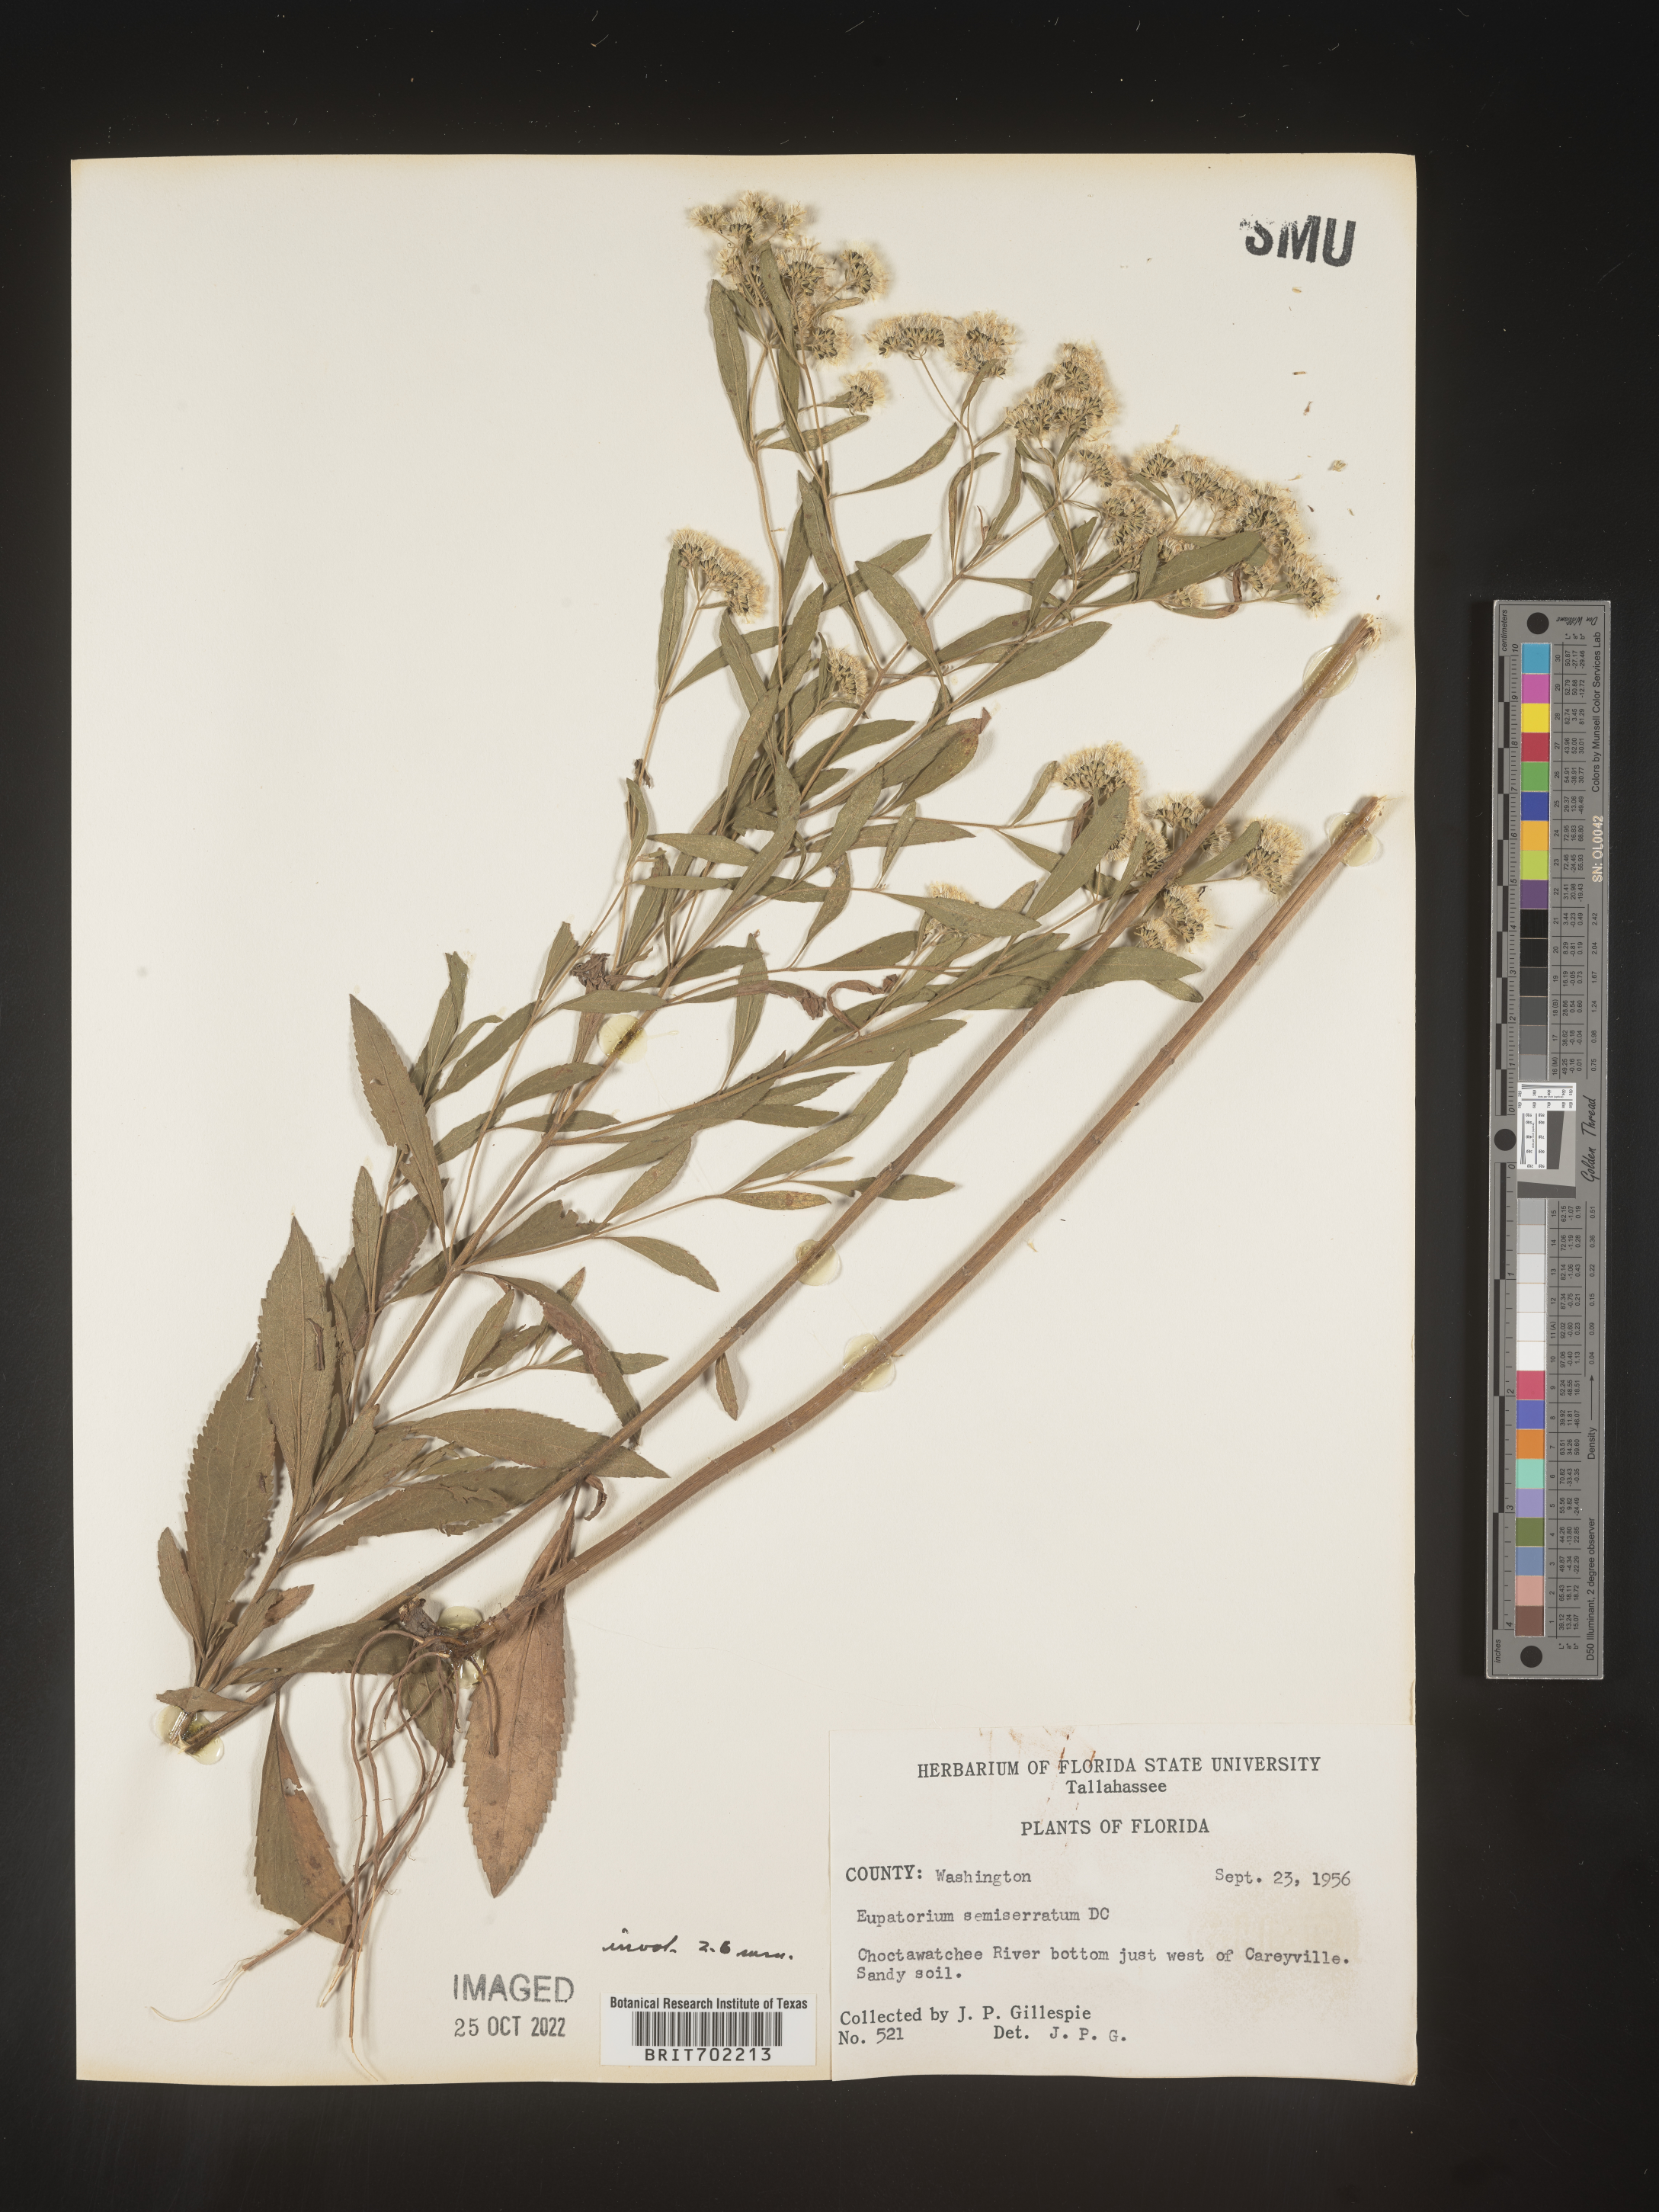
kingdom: Plantae
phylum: Tracheophyta
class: Magnoliopsida
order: Asterales
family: Asteraceae
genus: Eupatorium
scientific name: Eupatorium semiserratum
